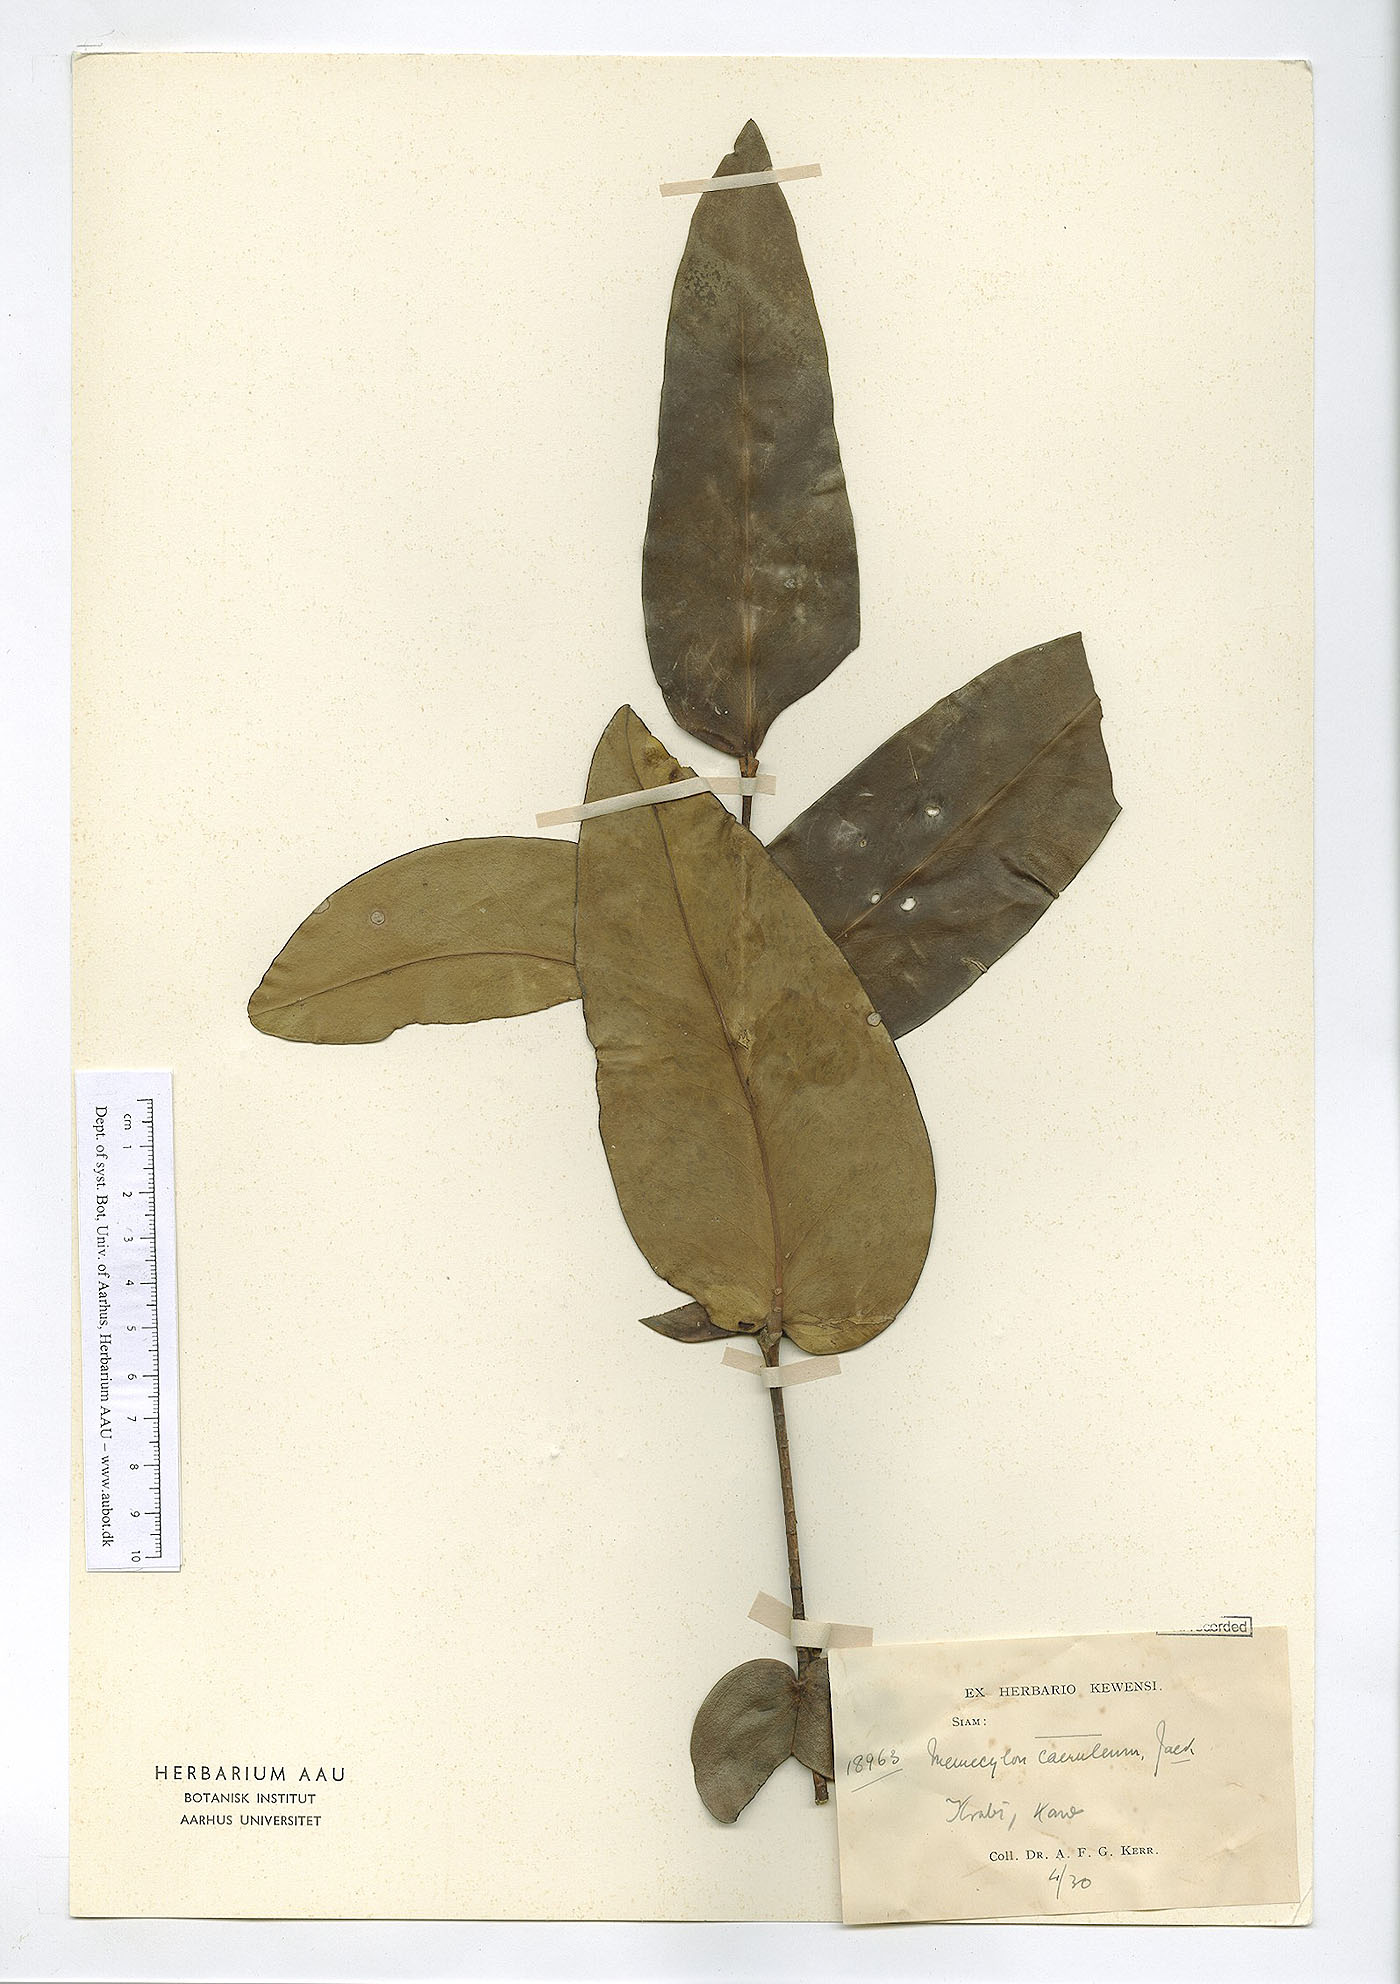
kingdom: Plantae
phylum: Tracheophyta
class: Magnoliopsida
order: Myrtales
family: Melastomataceae
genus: Memecylon
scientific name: Memecylon caeruleum
